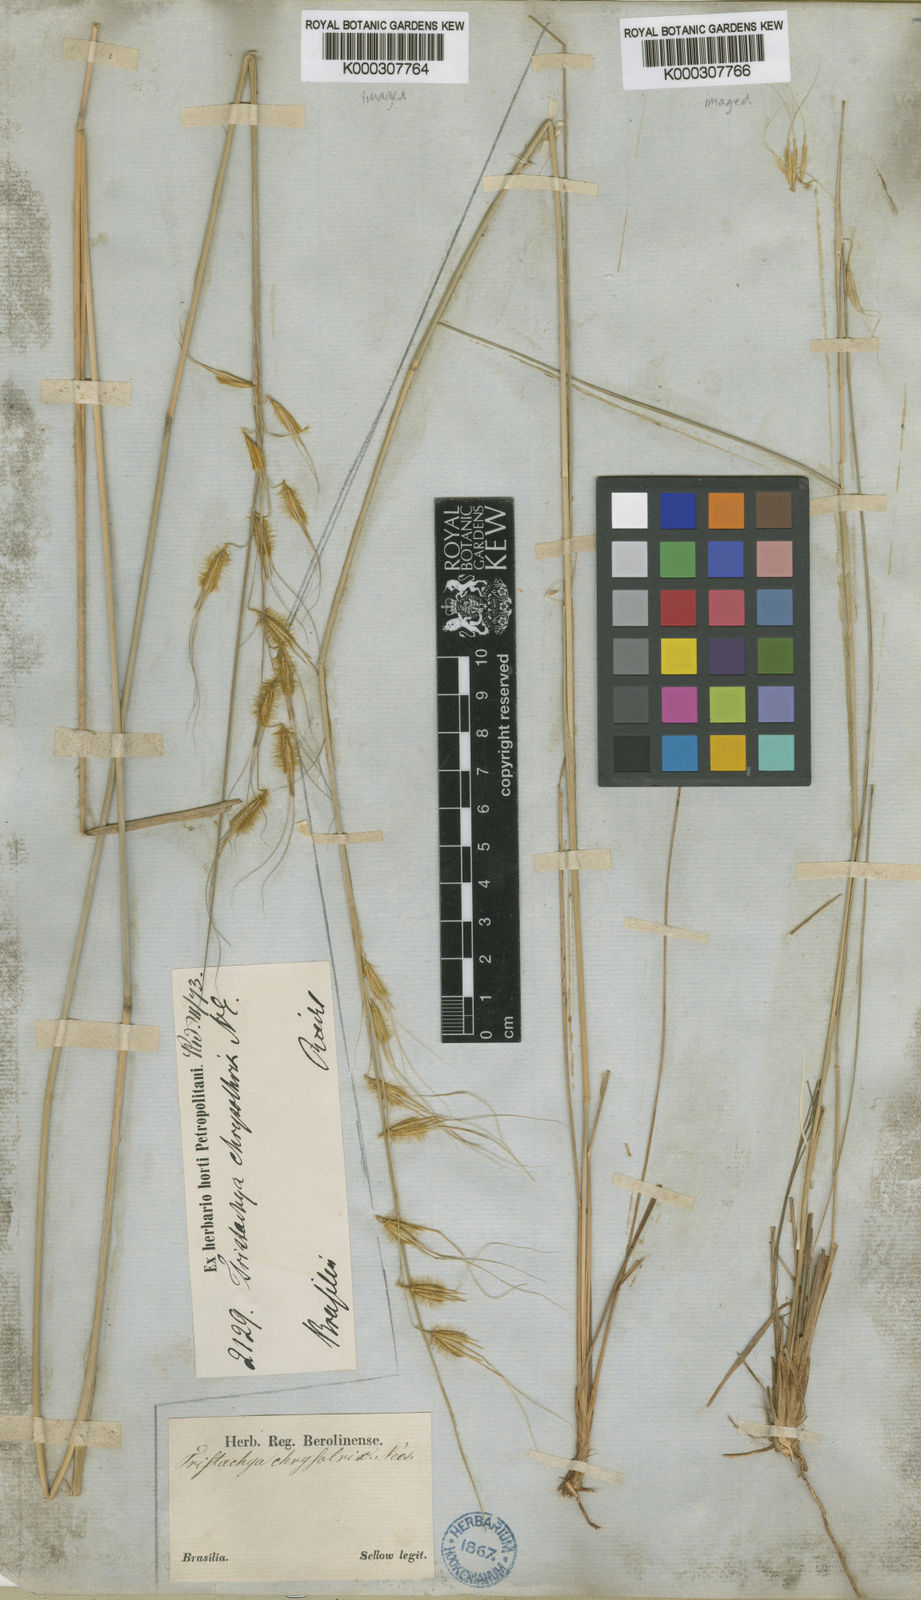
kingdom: Plantae
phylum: Tracheophyta
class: Liliopsida
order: Poales
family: Poaceae
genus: Loudetiopsis
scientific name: Loudetiopsis chrysothrix
